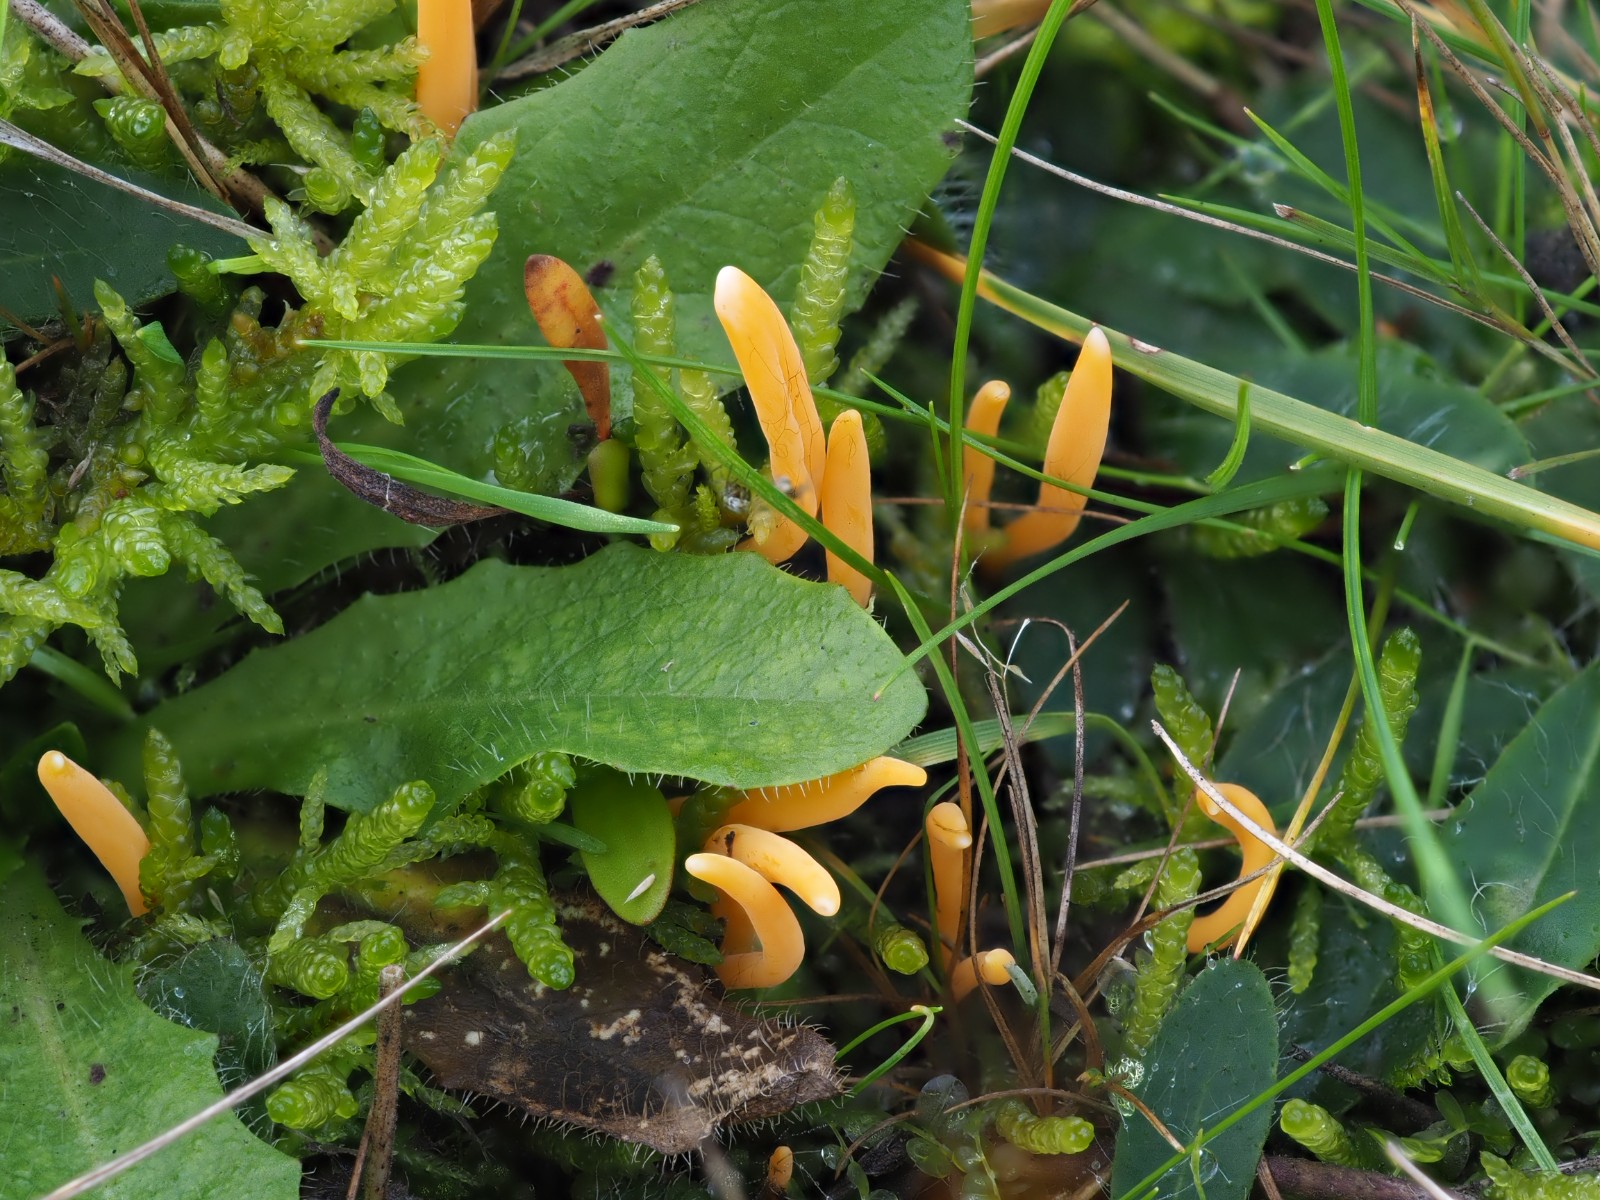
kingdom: Fungi
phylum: Basidiomycota
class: Agaricomycetes
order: Agaricales
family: Clavariaceae
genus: Clavulinopsis
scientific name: Clavulinopsis luteoalba
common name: abrikos-køllesvamp
